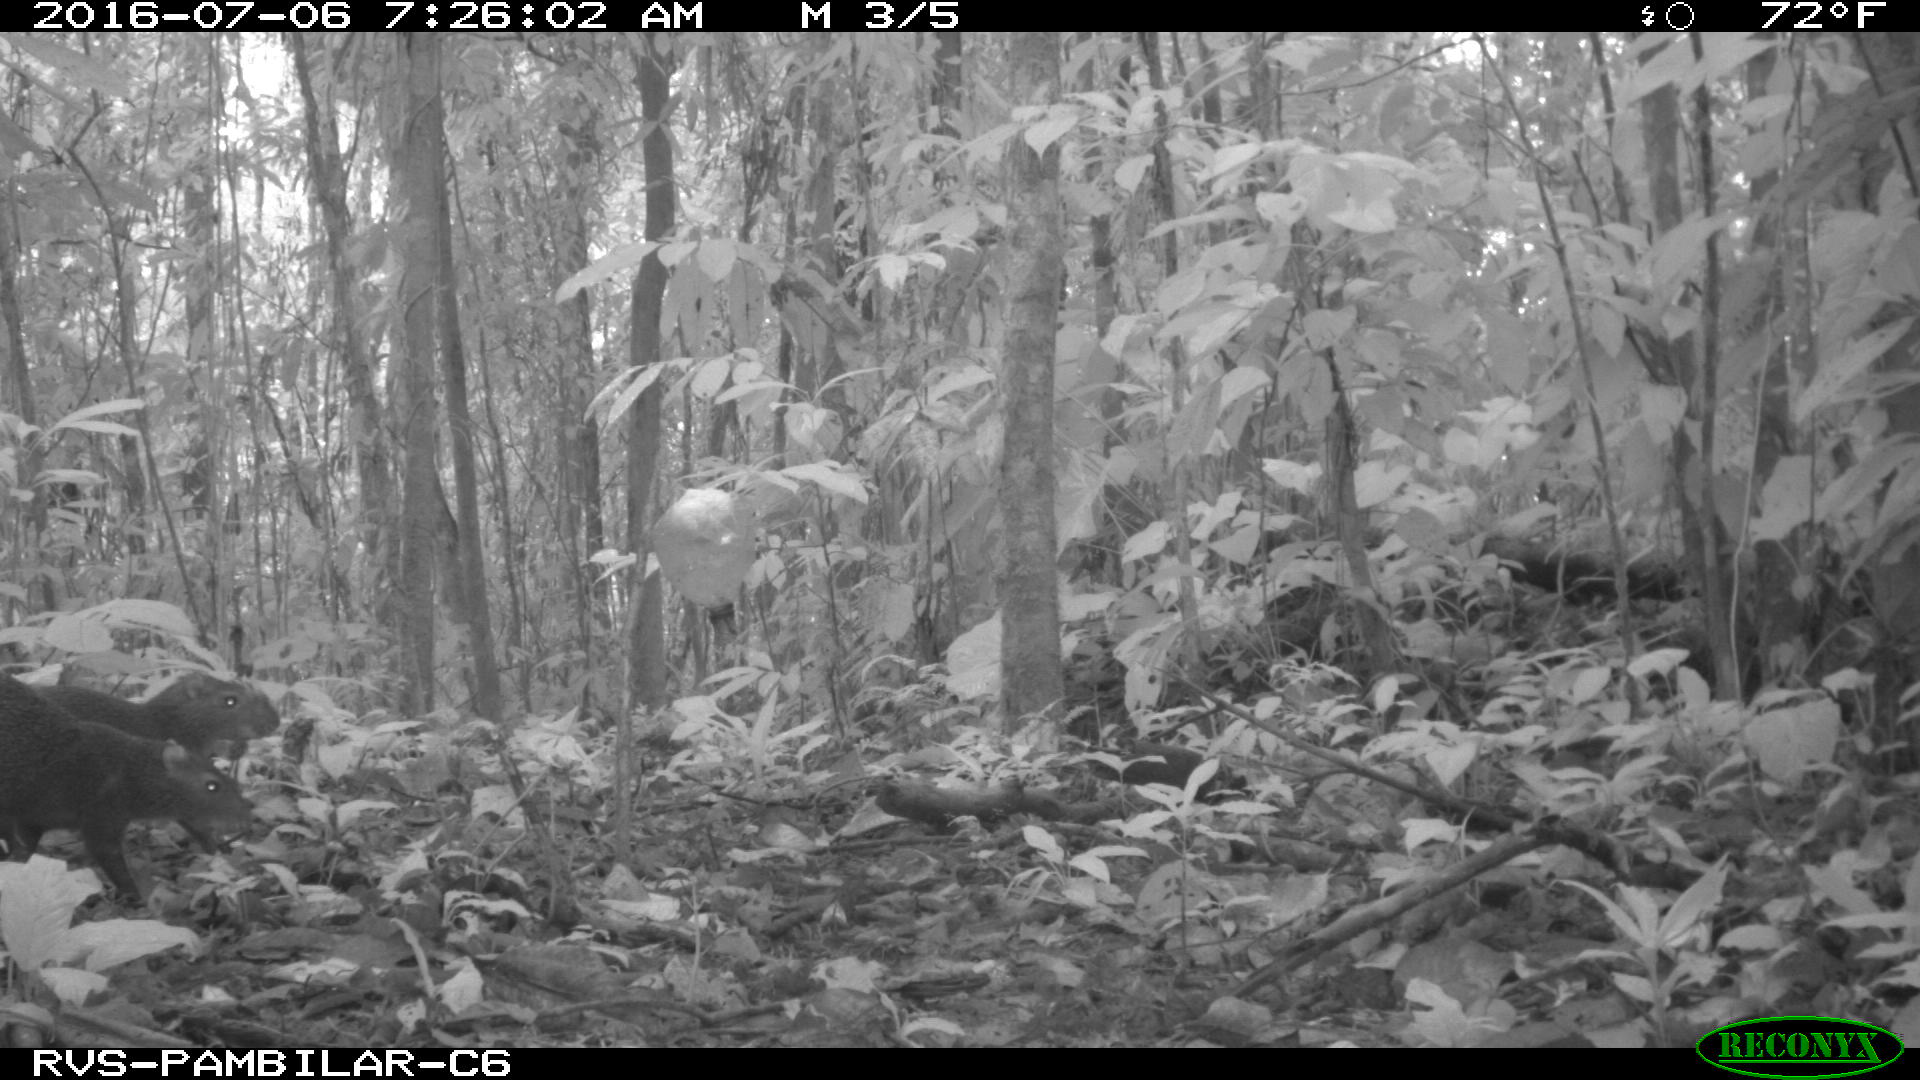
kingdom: Animalia
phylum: Chordata
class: Mammalia
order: Rodentia
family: Dasyproctidae
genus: Dasyprocta
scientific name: Dasyprocta punctata
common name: Central american agouti
